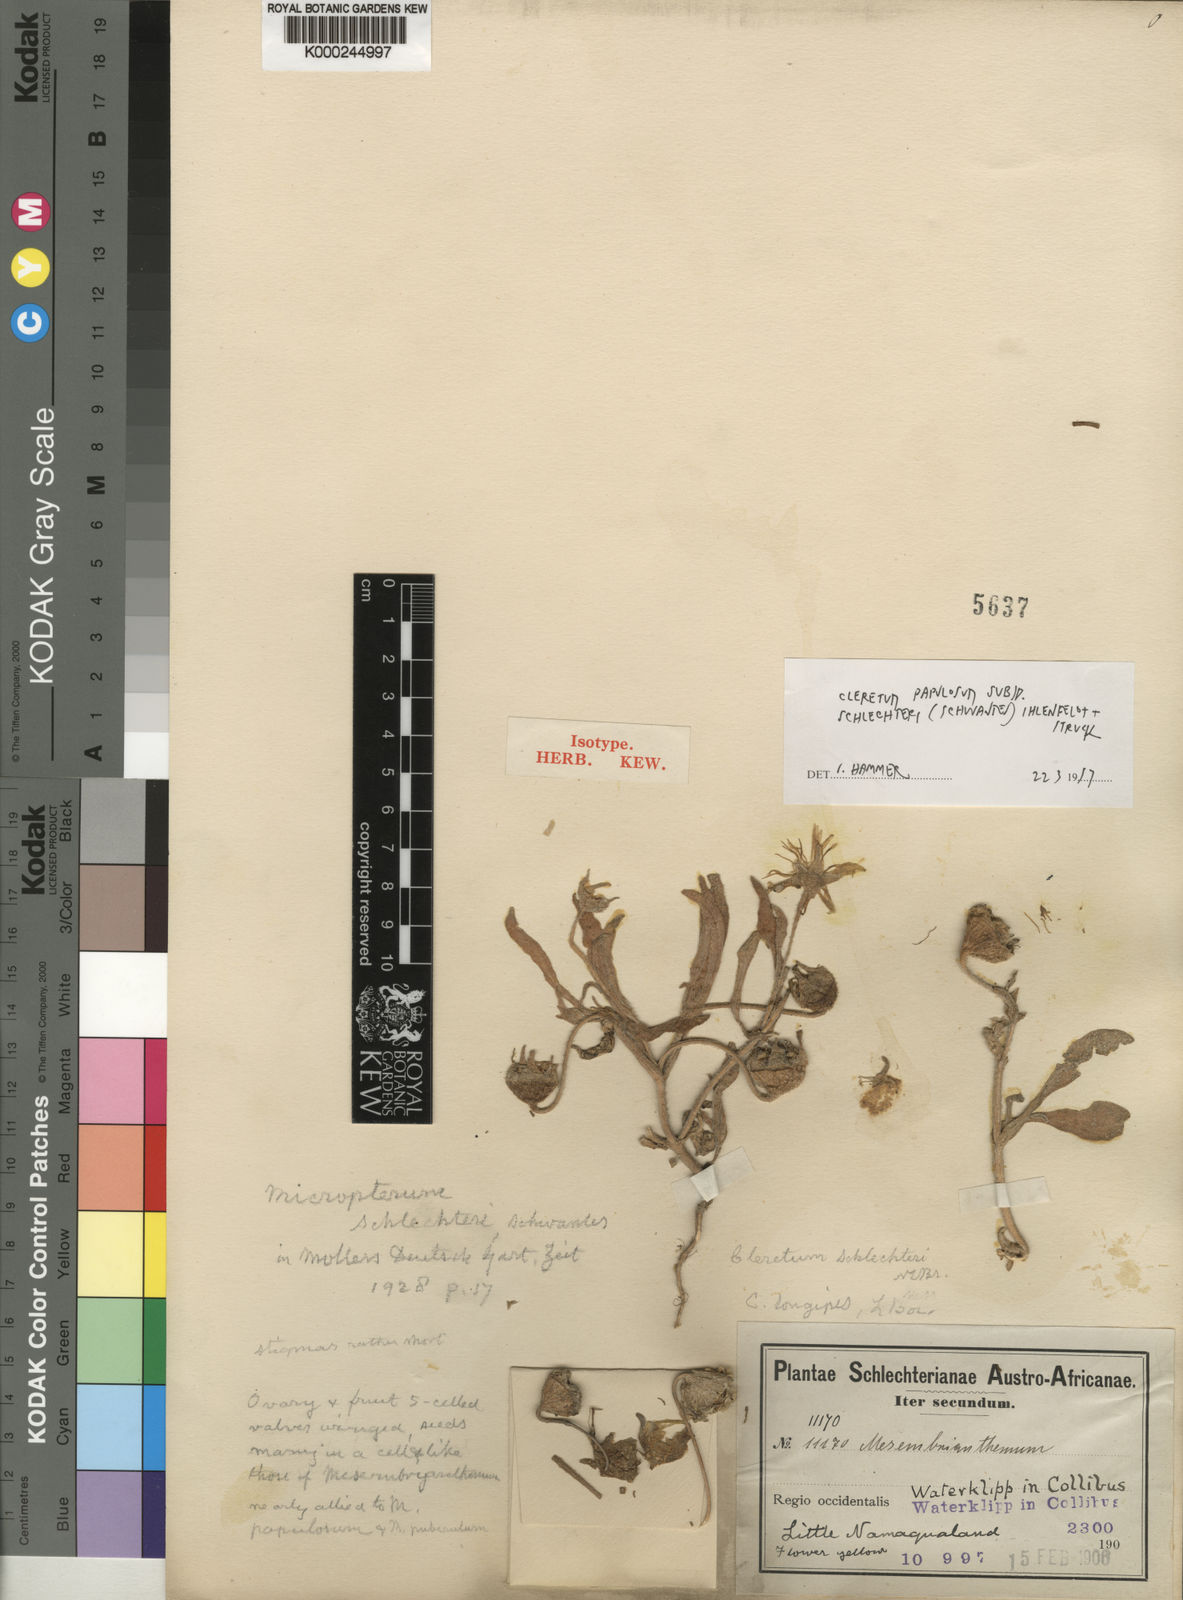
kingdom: Plantae
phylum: Tracheophyta
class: Magnoliopsida
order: Caryophyllales
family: Aizoaceae
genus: Cleretum
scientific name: Cleretum papulosum
